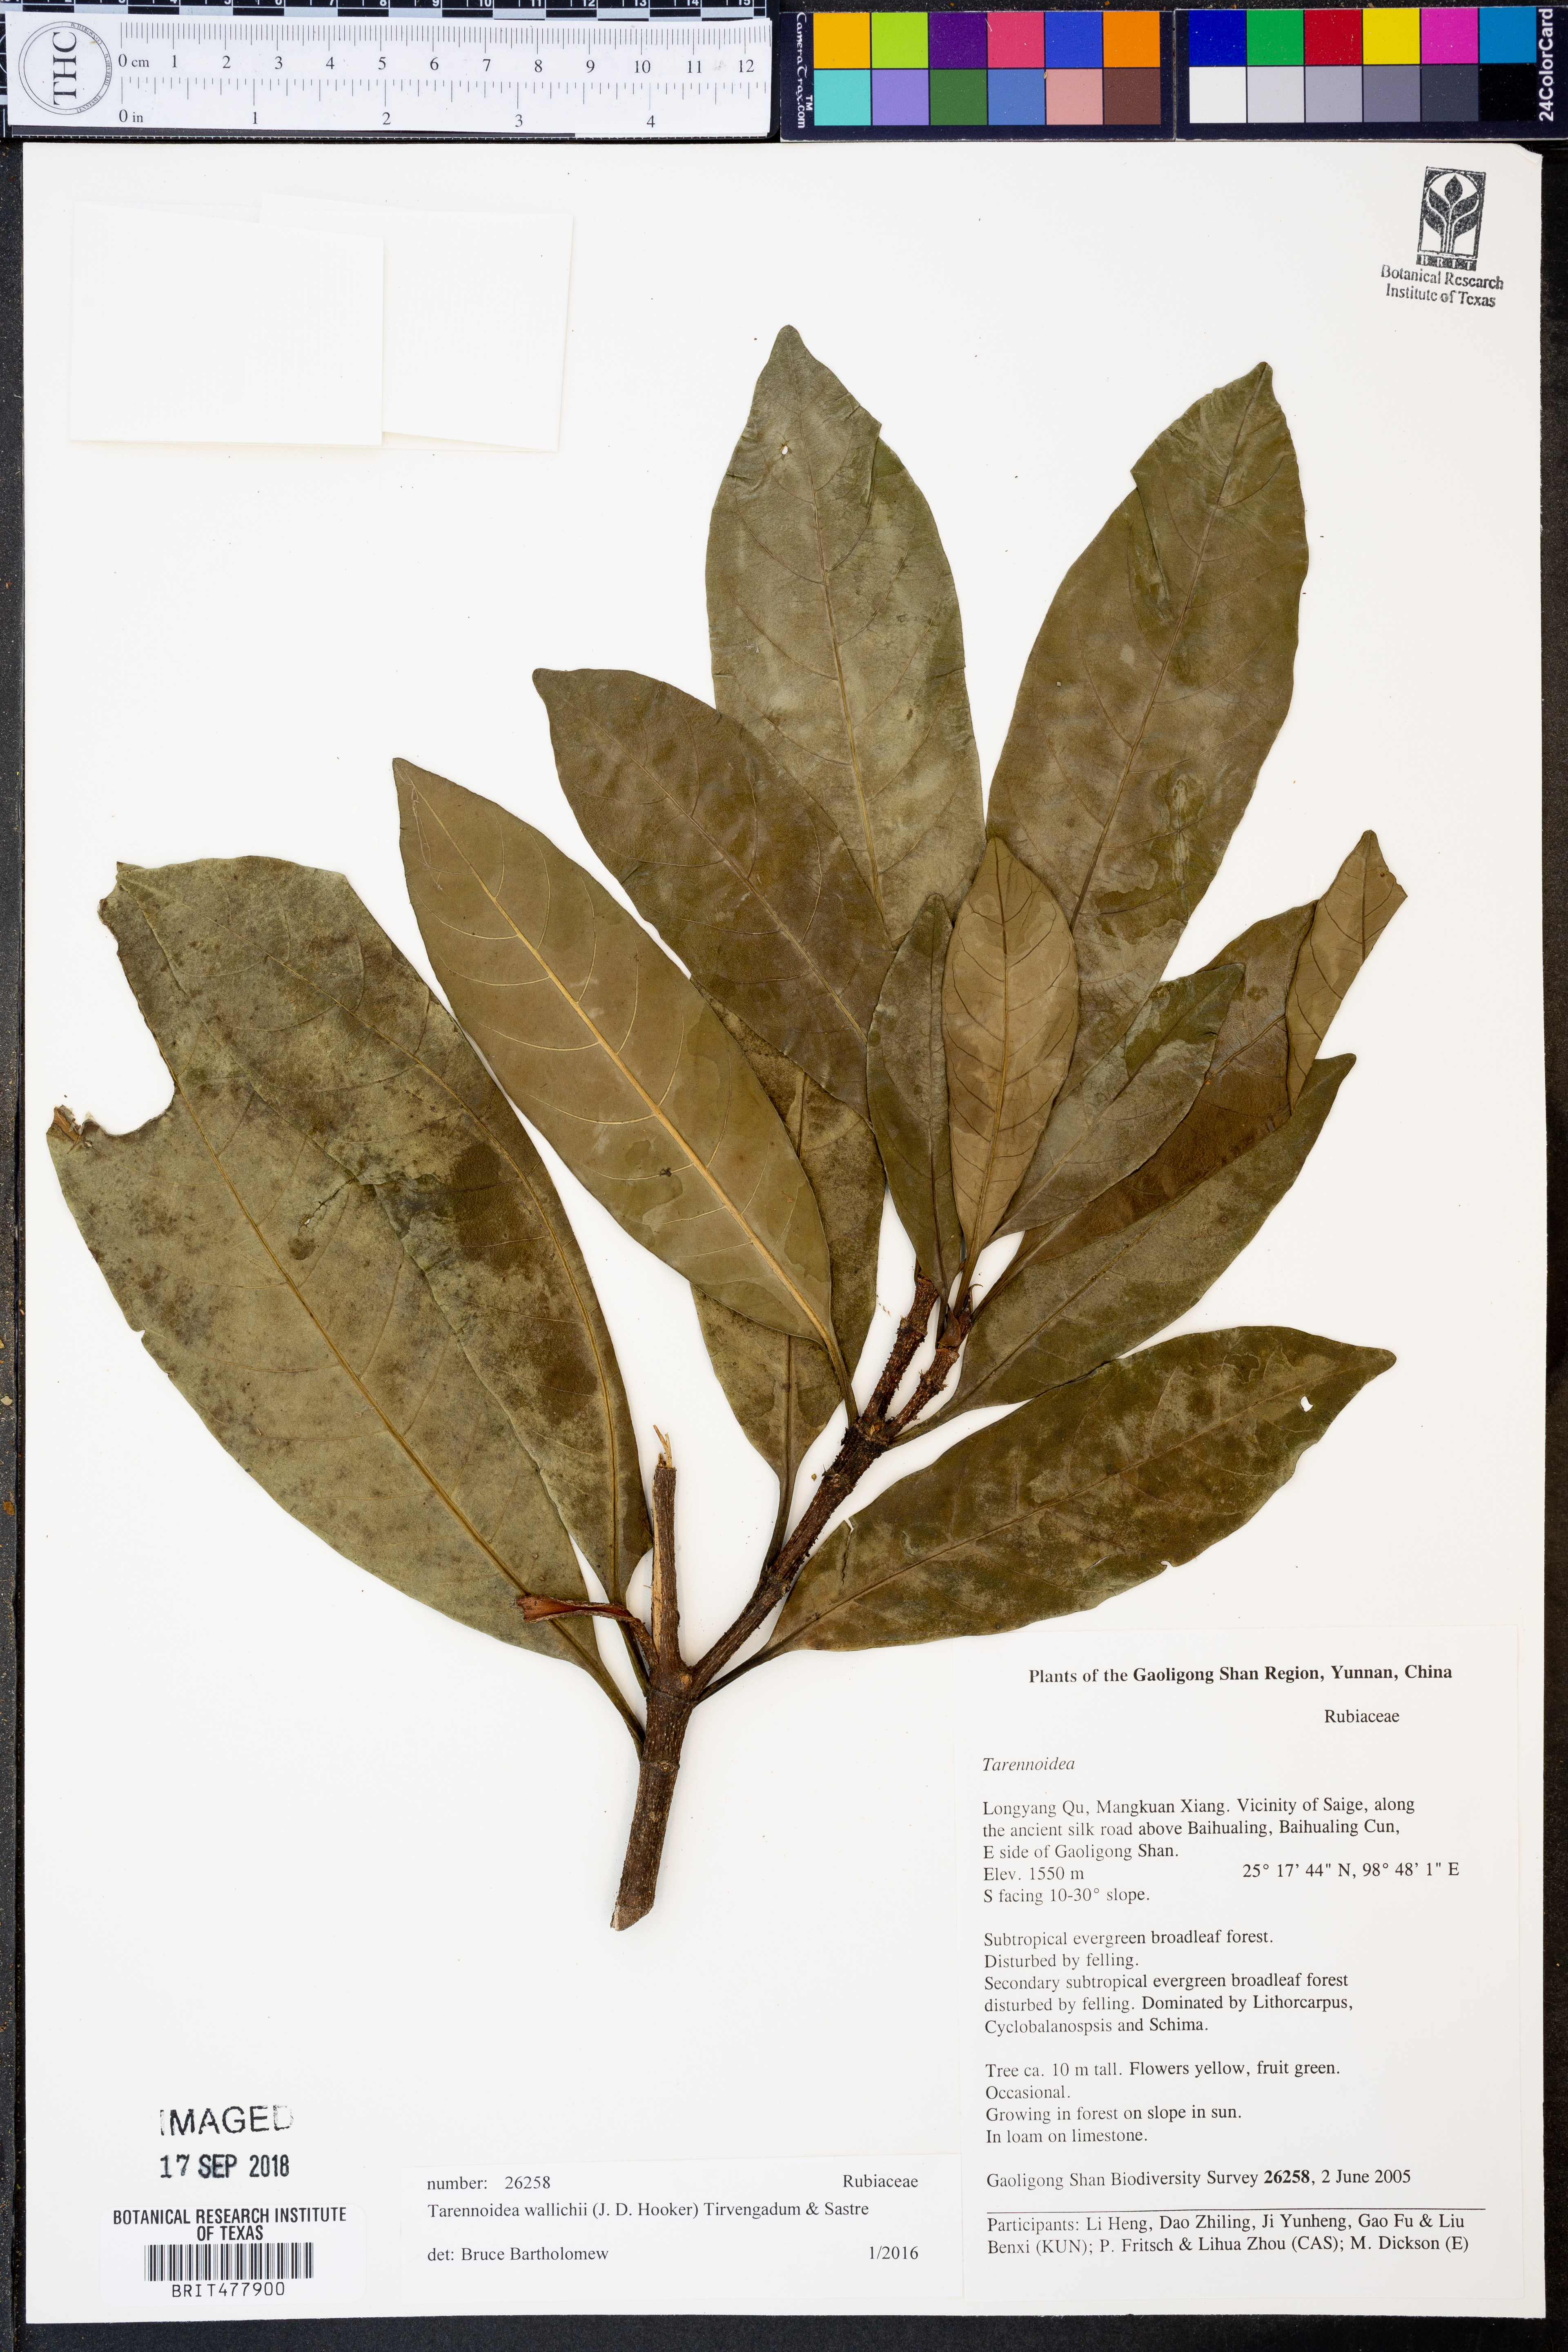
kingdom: Plantae
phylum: Tracheophyta
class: Magnoliopsida
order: Gentianales
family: Rubiaceae
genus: Tarennoidea
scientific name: Tarennoidea wallichii
